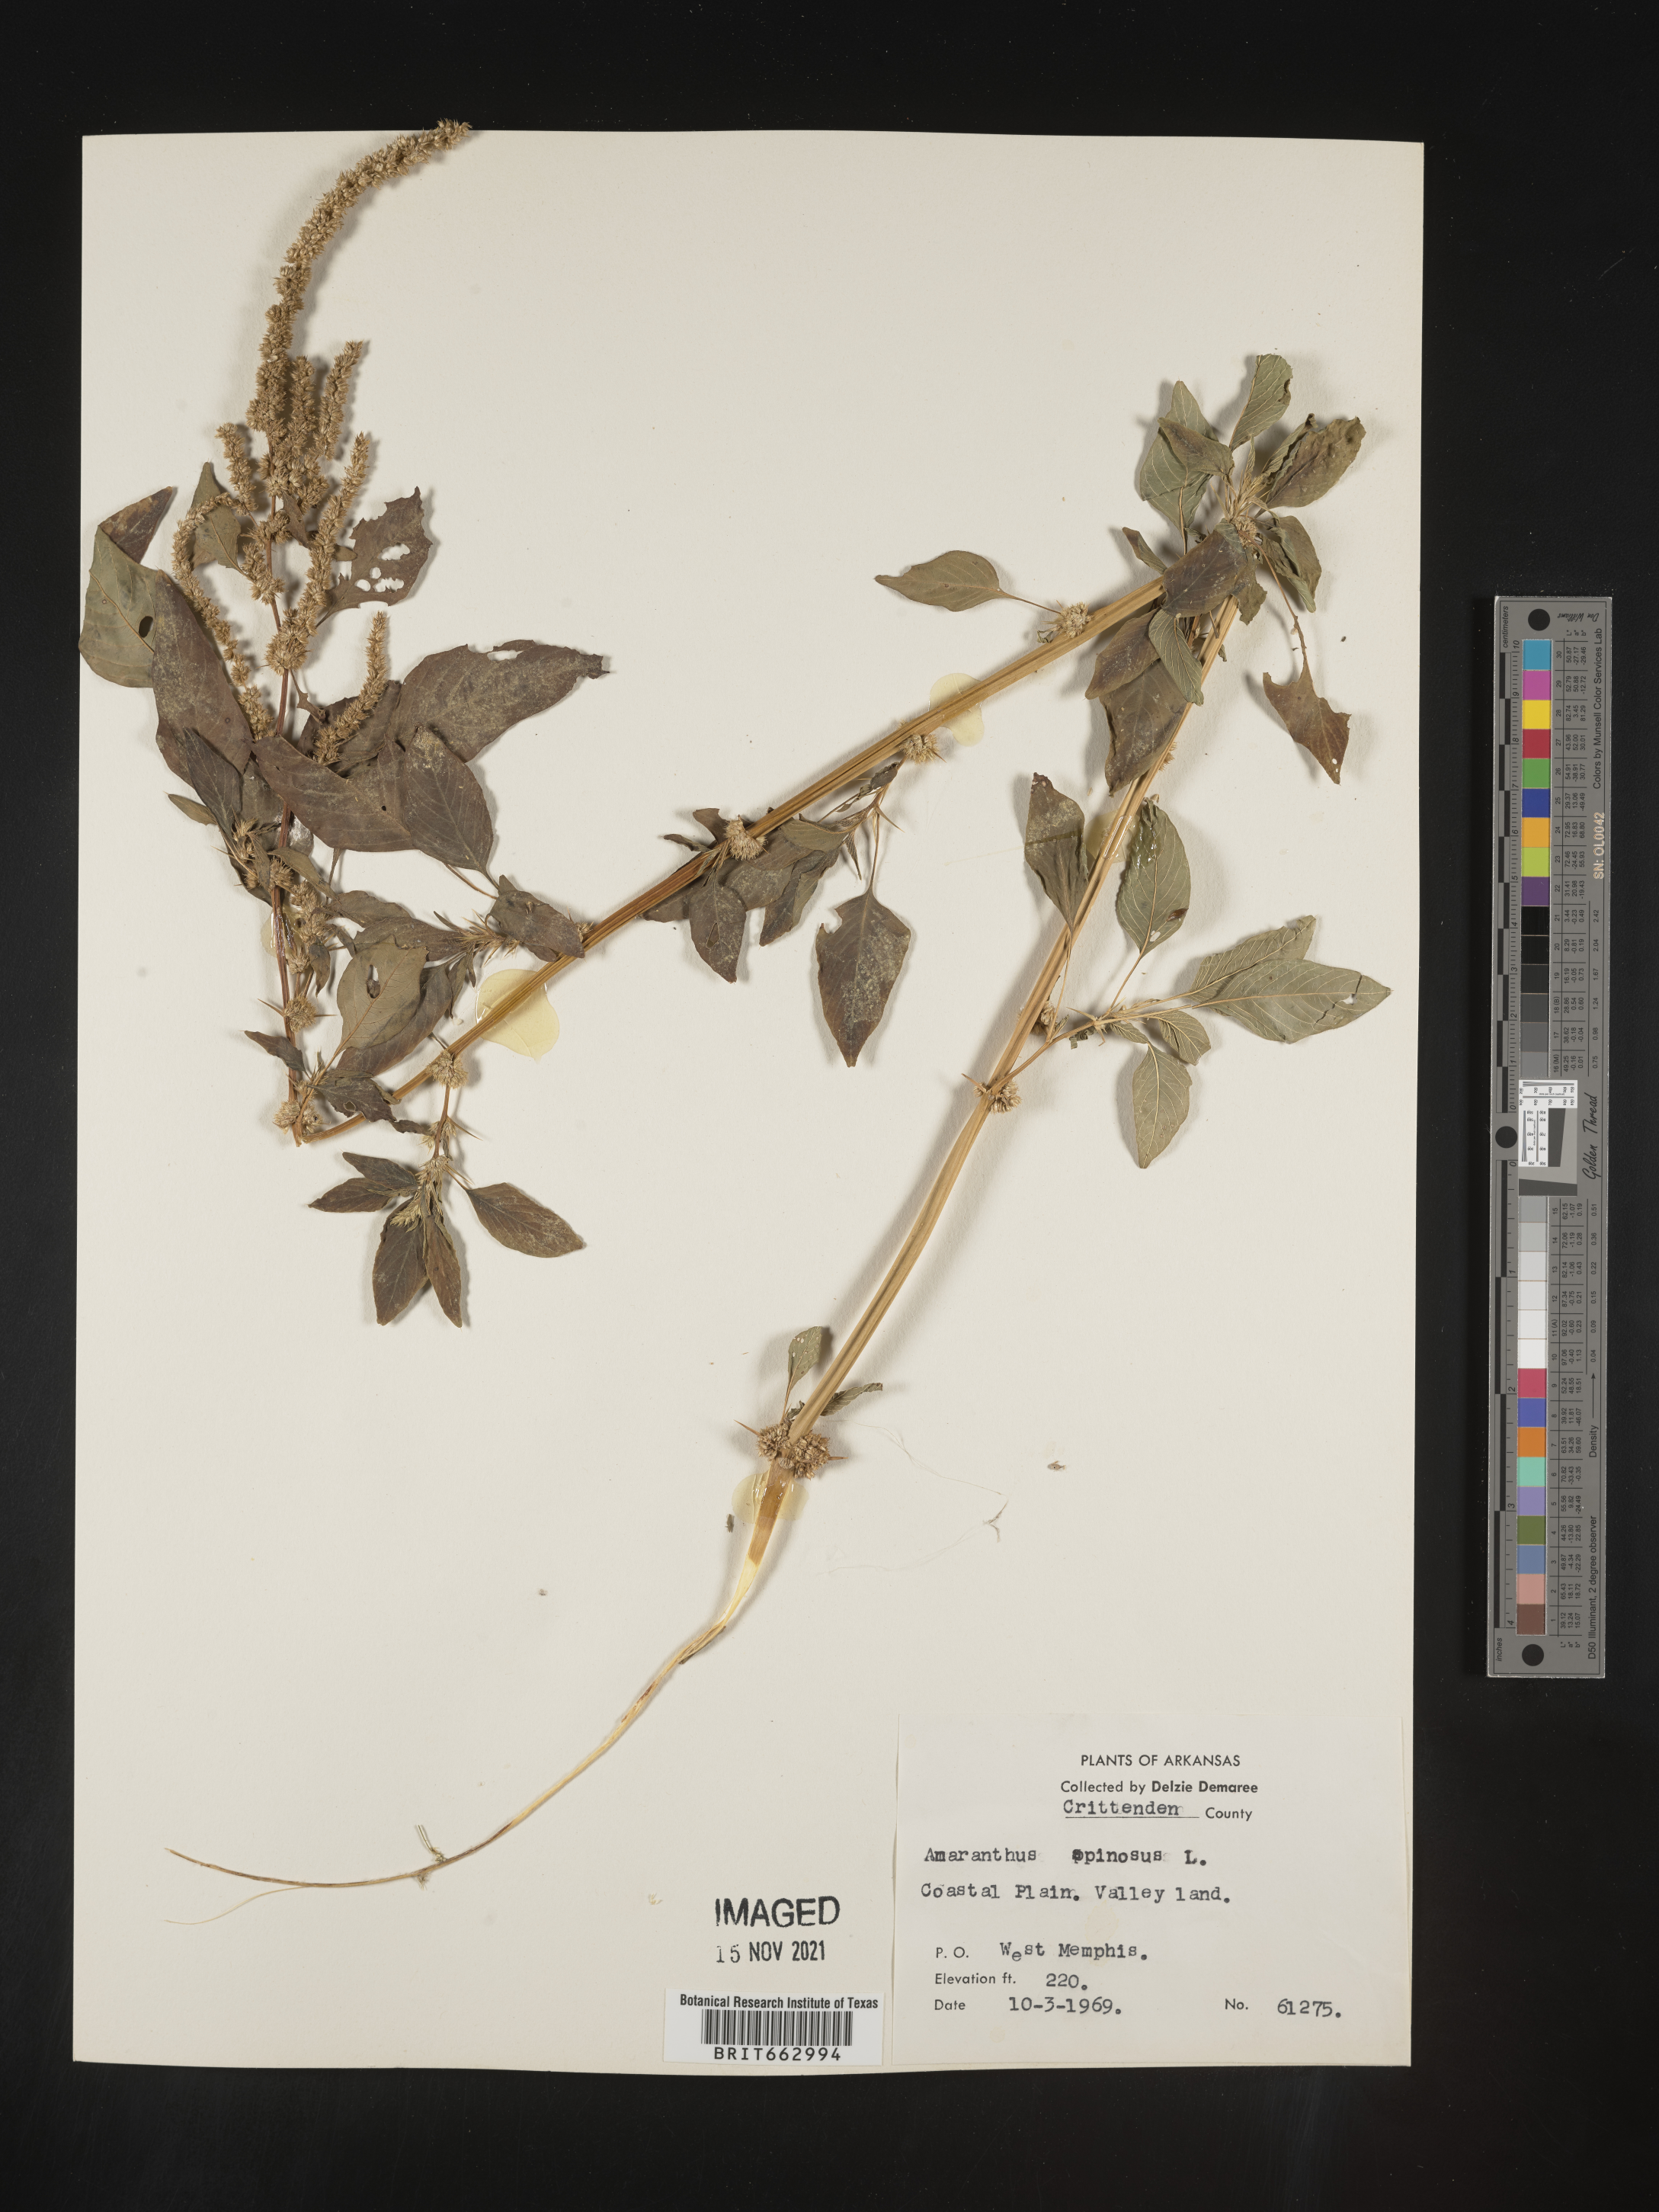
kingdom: Plantae
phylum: Tracheophyta
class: Magnoliopsida
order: Caryophyllales
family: Amaranthaceae
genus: Amaranthus
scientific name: Amaranthus spinosus
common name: Spiny amaranth
